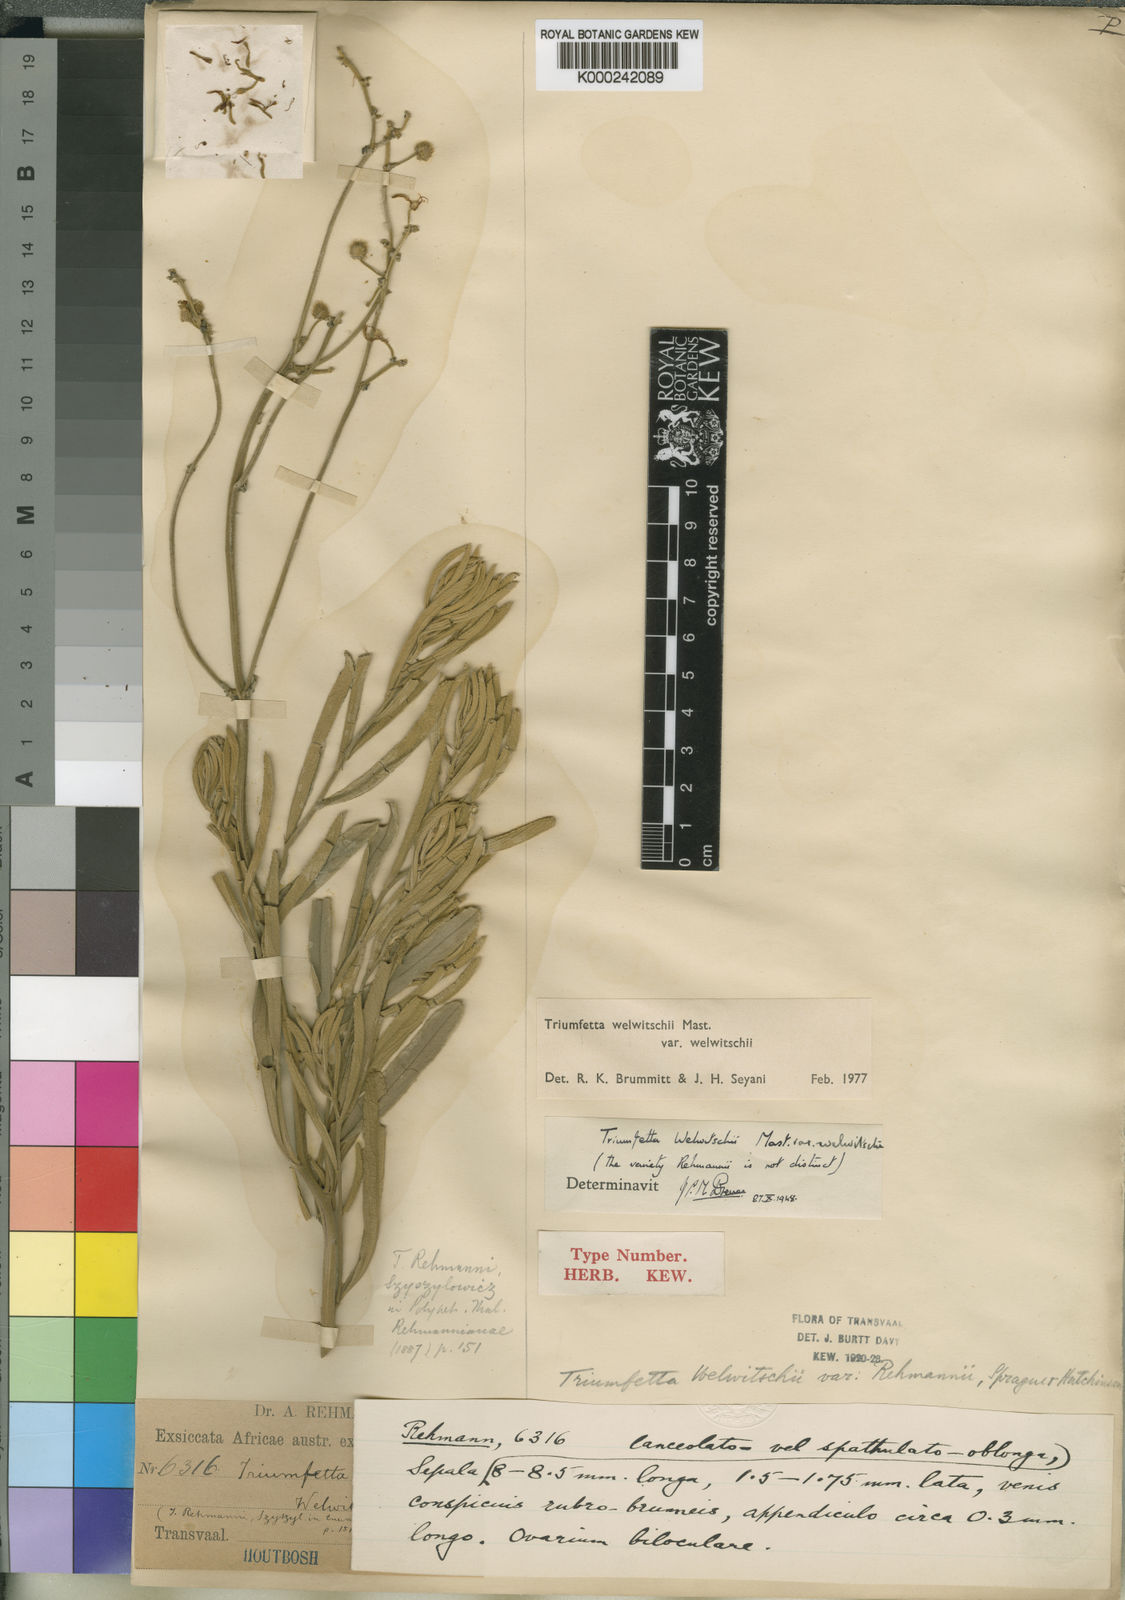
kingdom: Plantae
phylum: Tracheophyta
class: Magnoliopsida
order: Malvales
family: Malvaceae
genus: Triumfetta
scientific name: Triumfetta welwitschii
